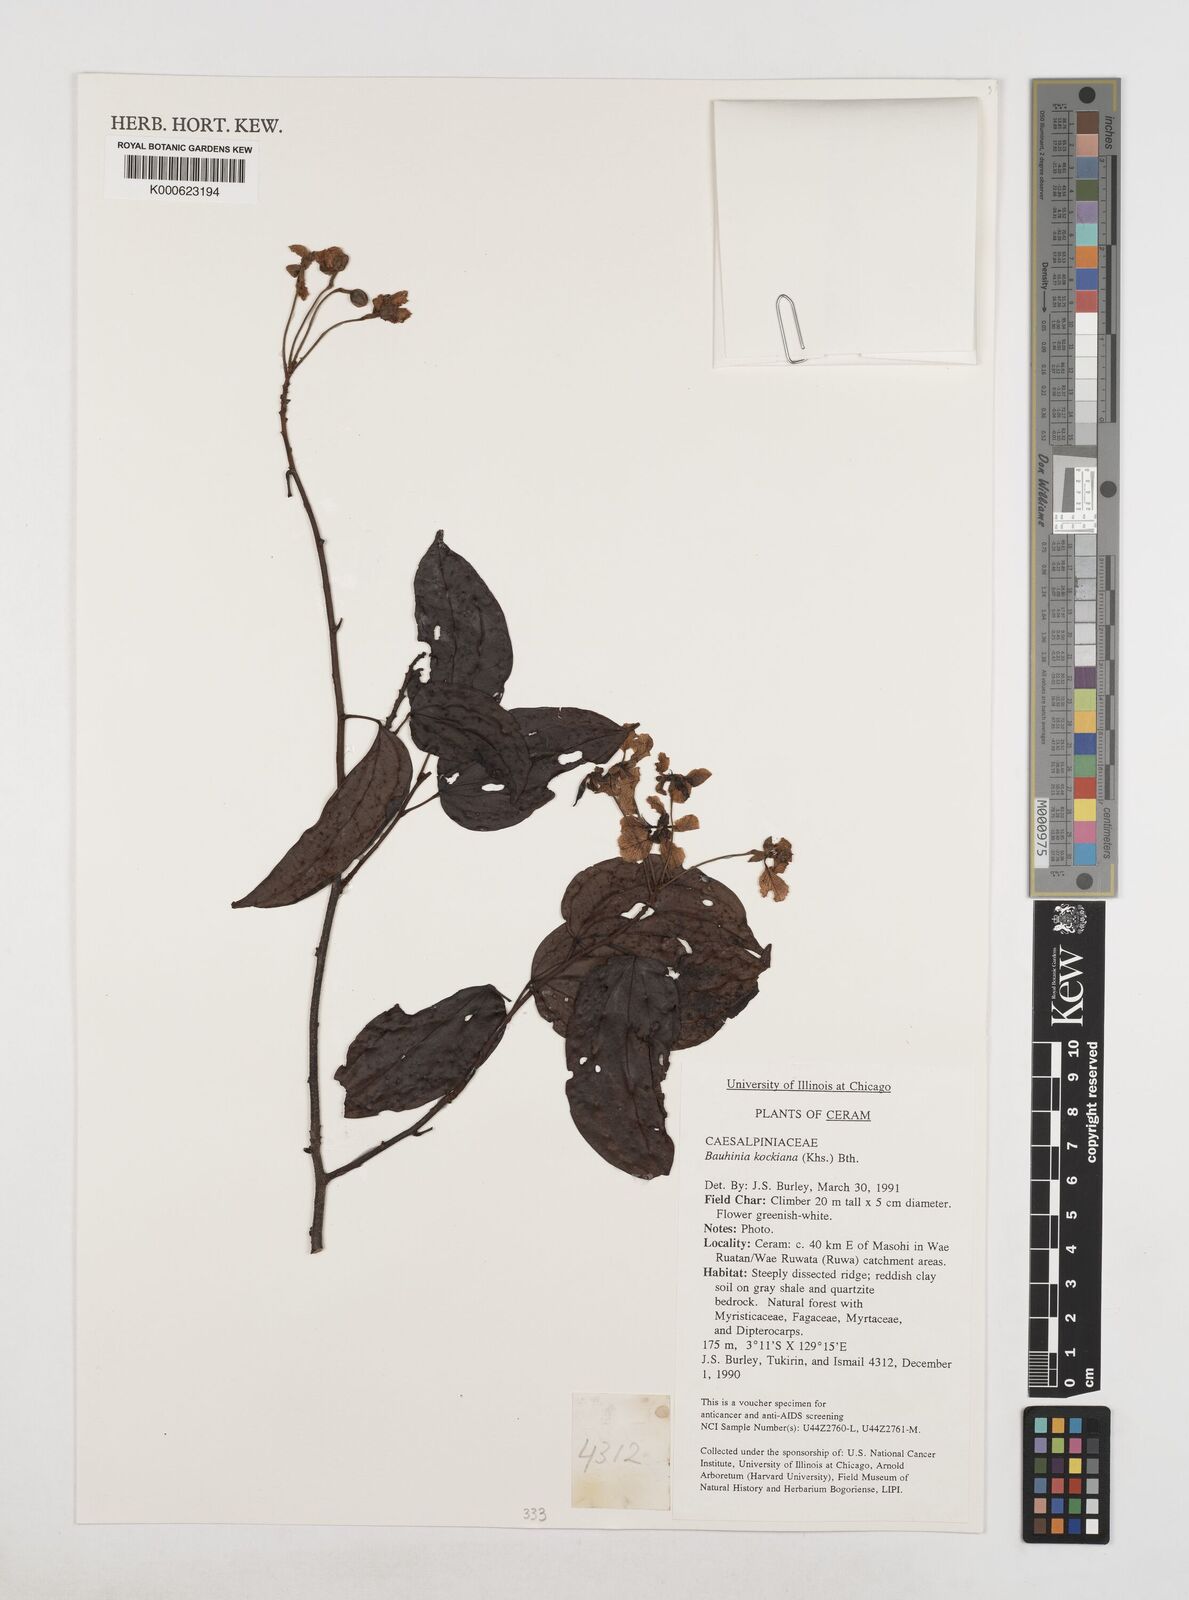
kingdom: Plantae
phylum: Tracheophyta
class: Magnoliopsida
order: Fabales
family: Fabaceae
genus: Phanera
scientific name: Phanera kockiana
